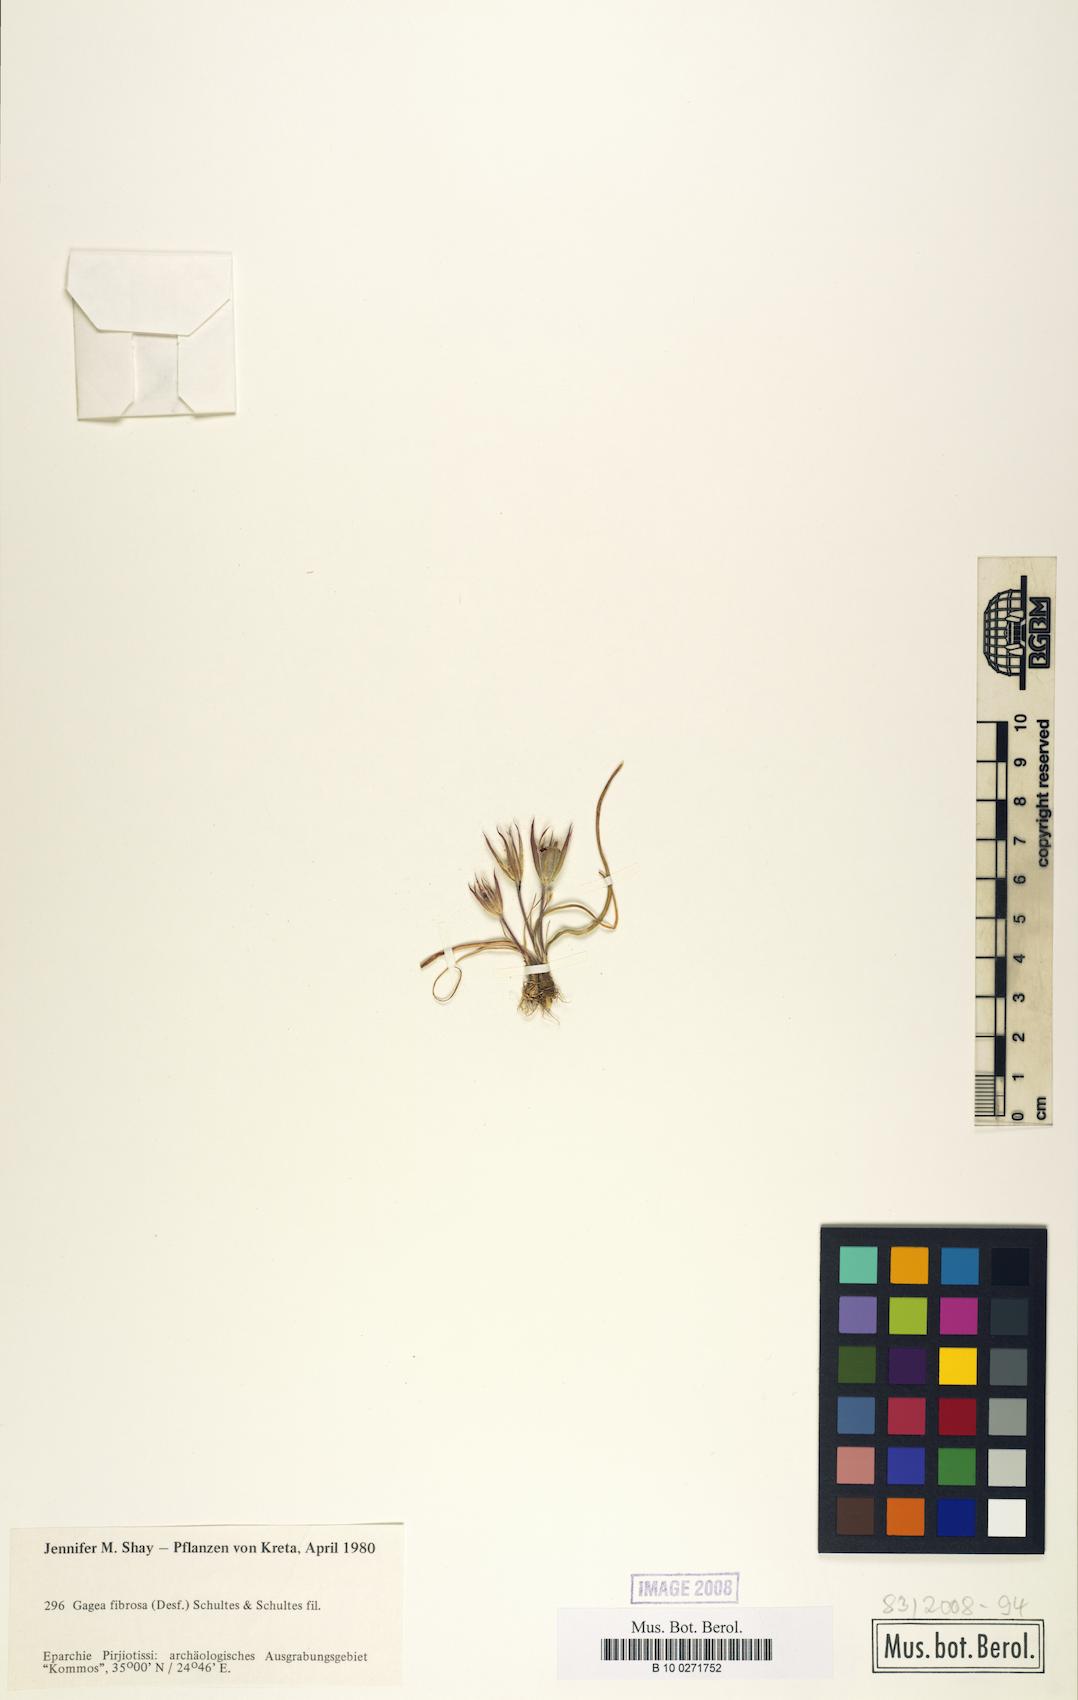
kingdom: Plantae
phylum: Tracheophyta
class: Liliopsida
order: Liliales
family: Liliaceae
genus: Gagea
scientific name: Gagea fibrosa
